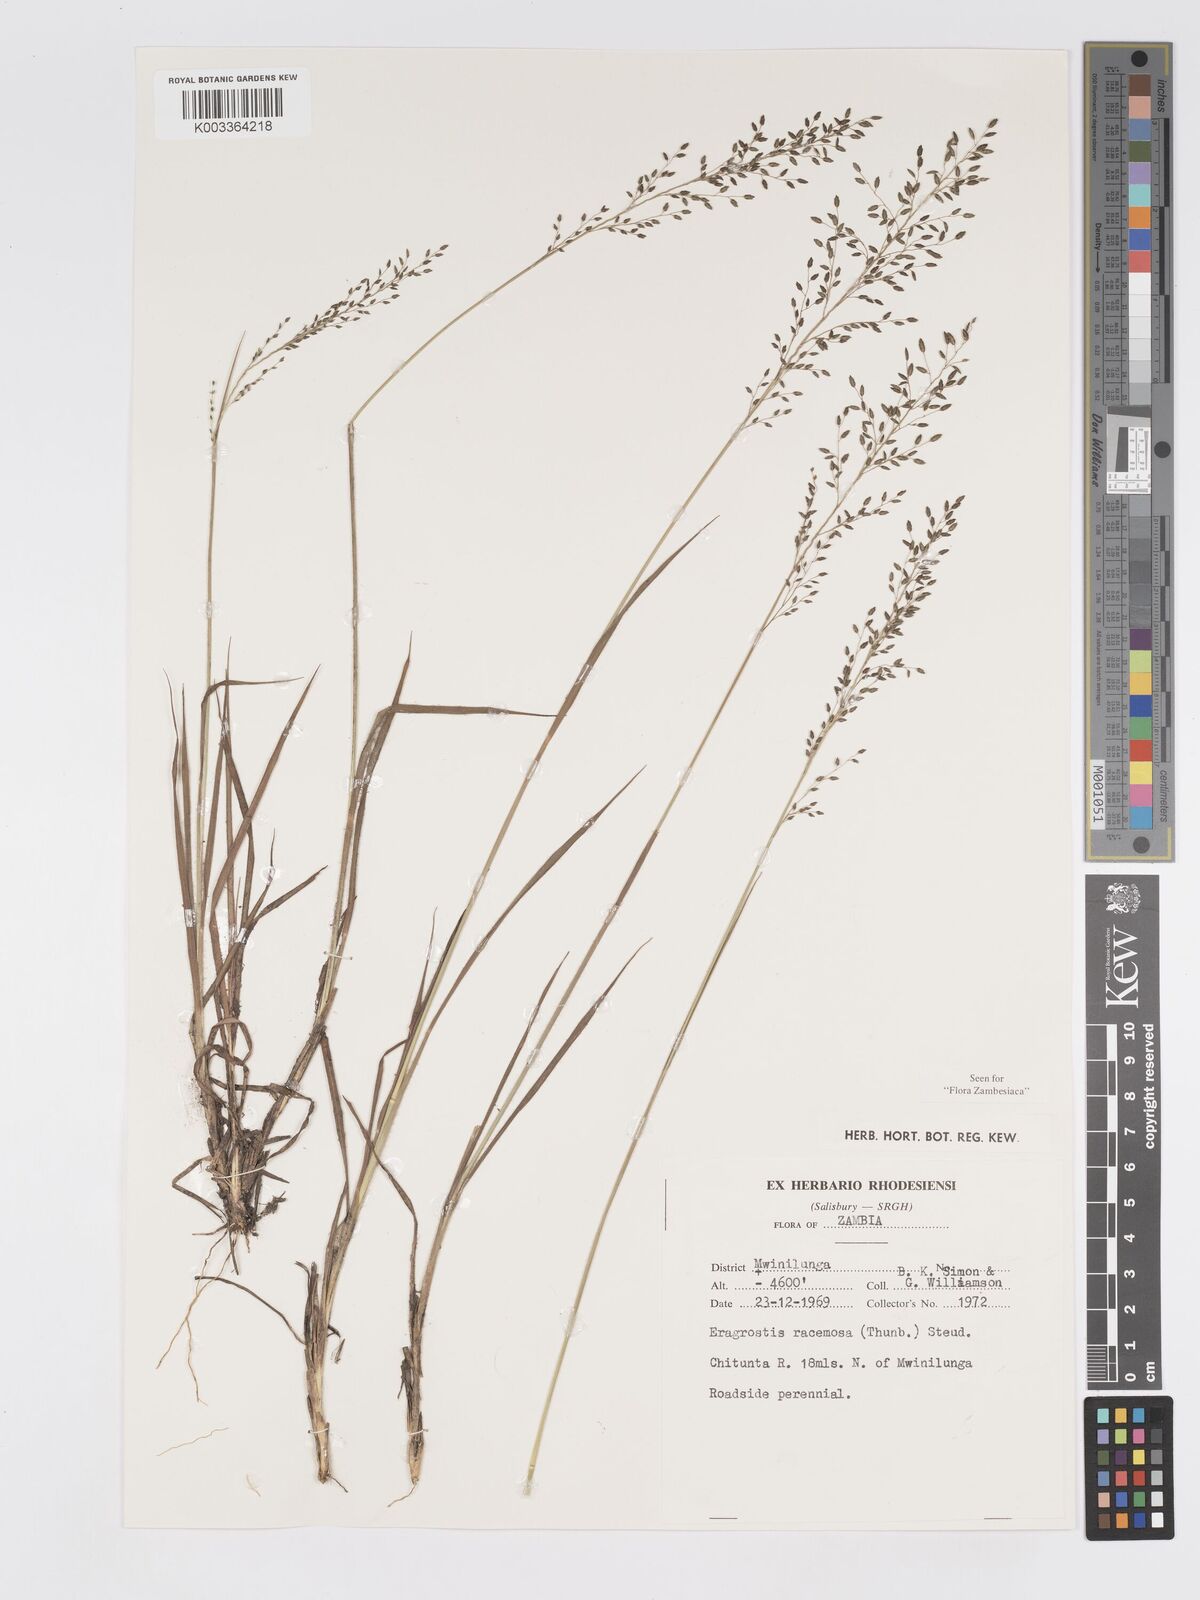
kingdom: Plantae
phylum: Tracheophyta
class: Liliopsida
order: Poales
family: Poaceae
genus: Eragrostis
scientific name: Eragrostis racemosa
